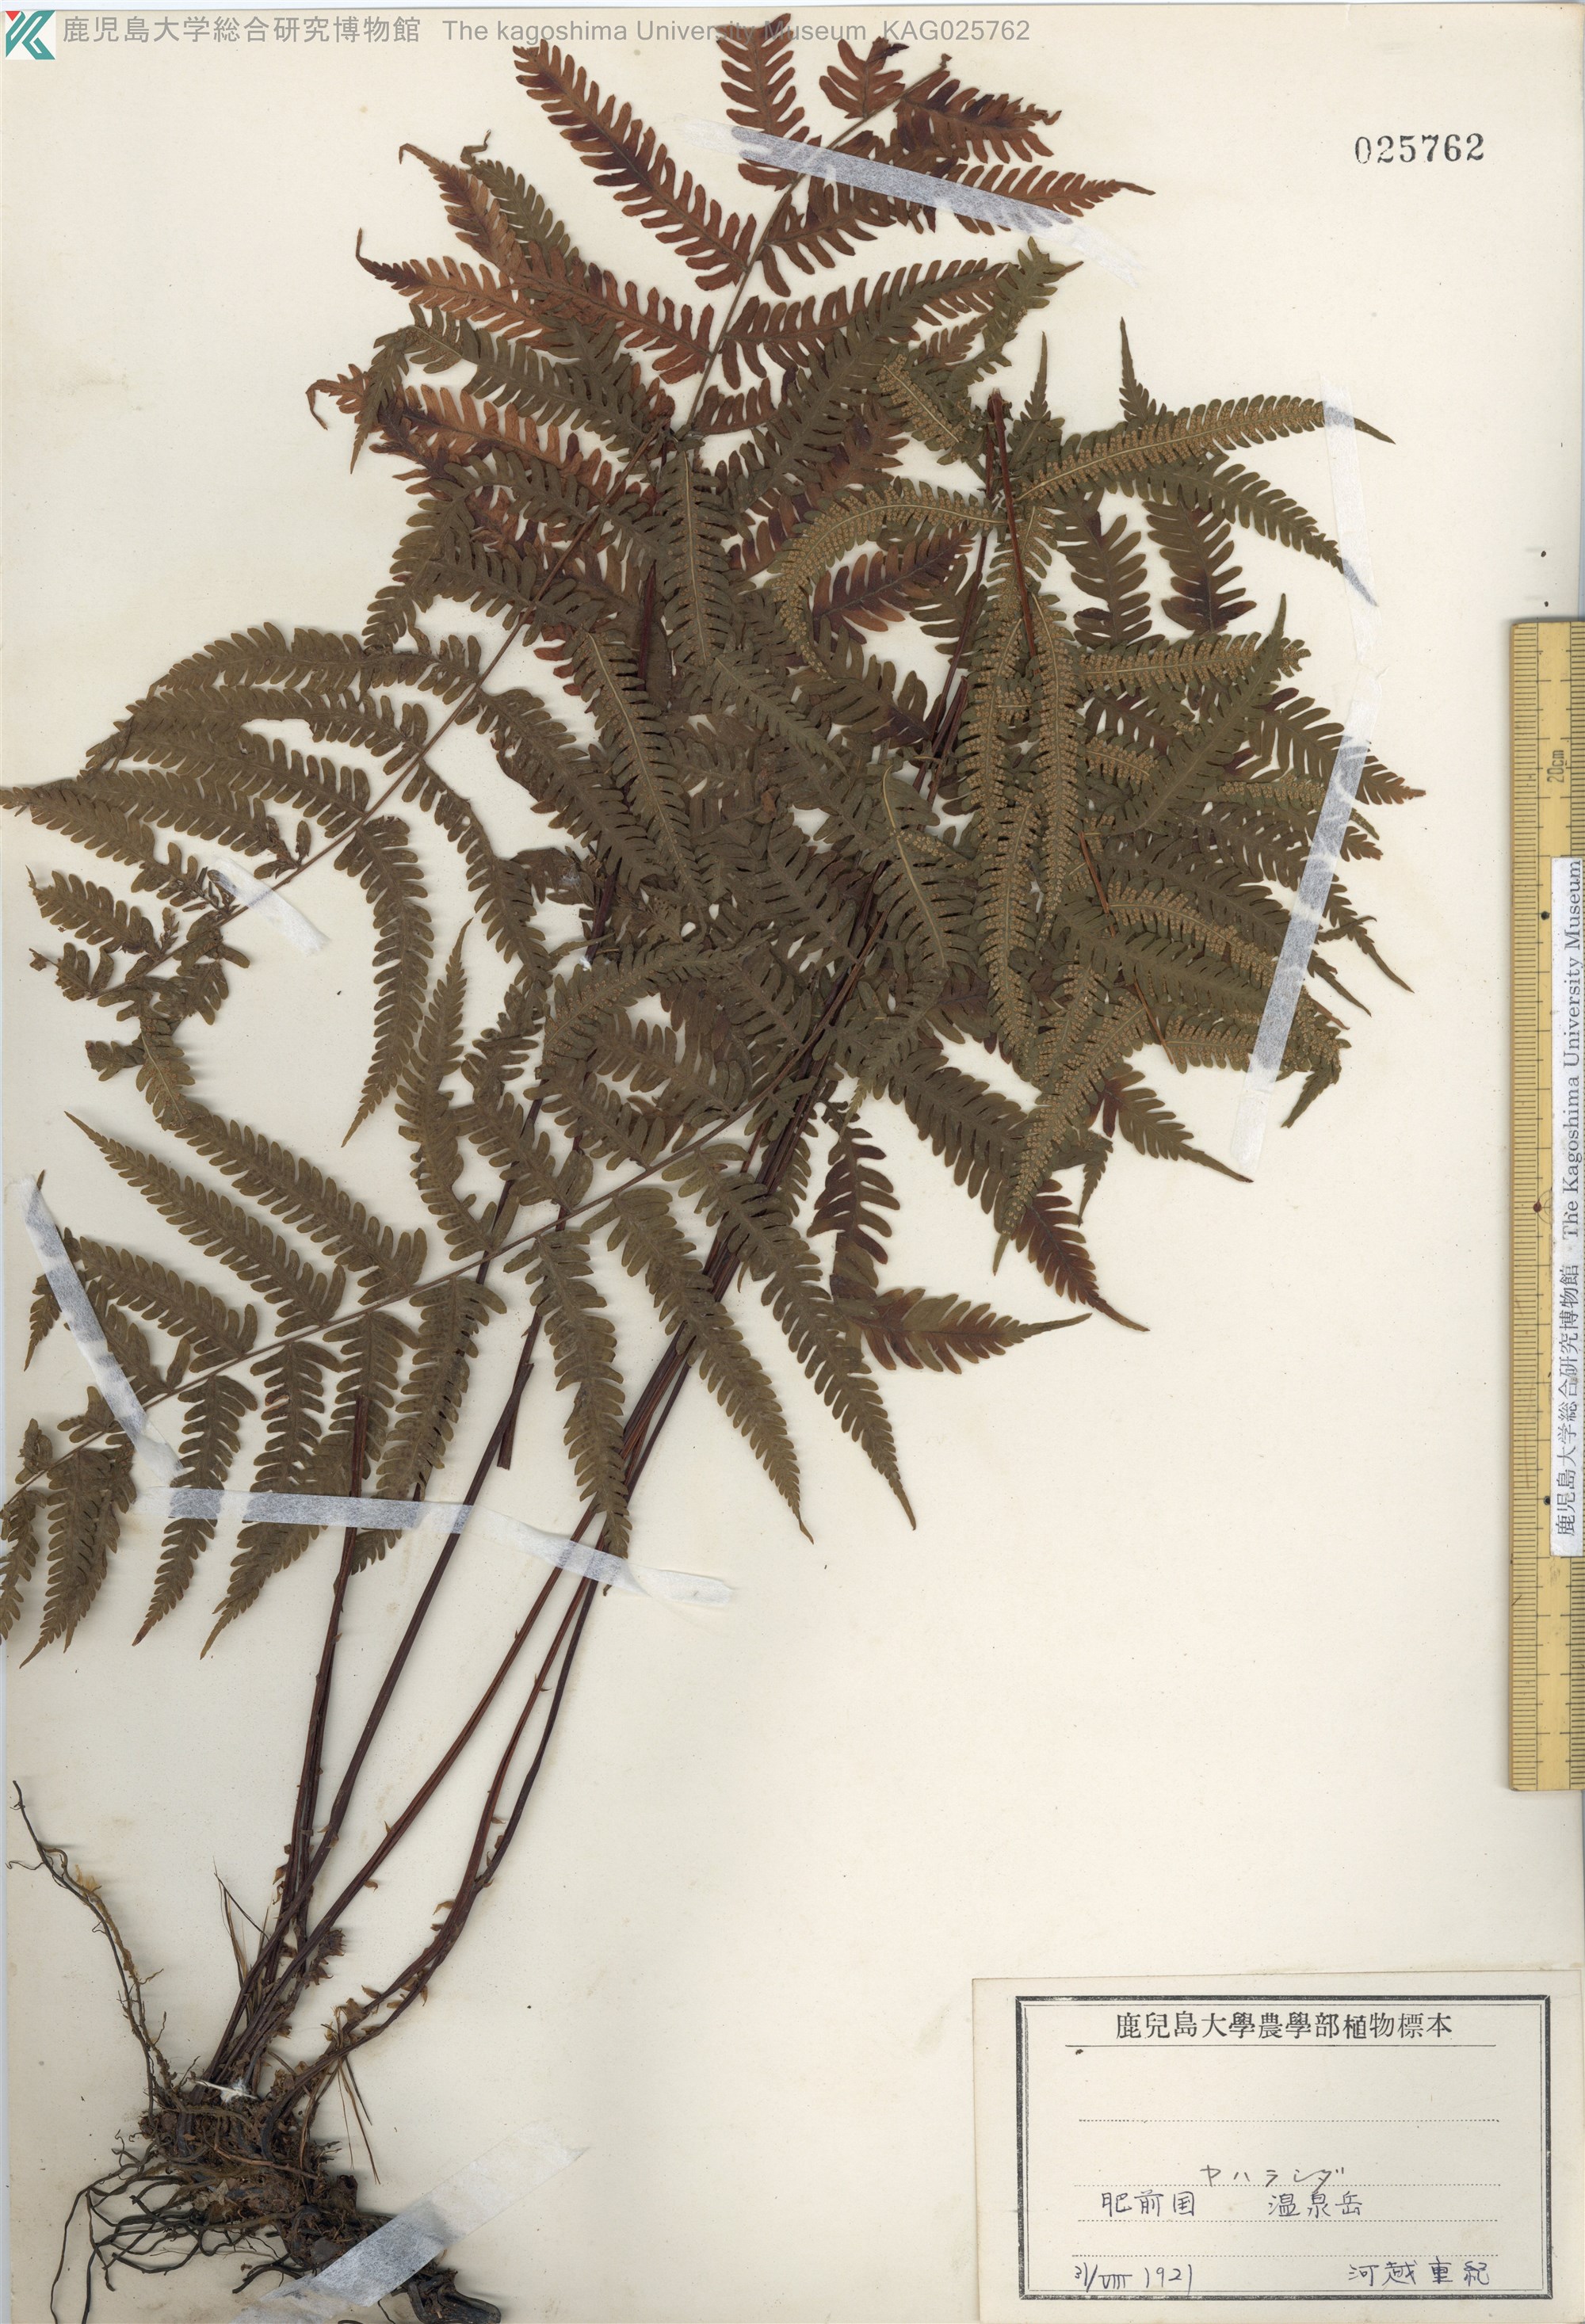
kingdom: Plantae
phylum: Tracheophyta
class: Polypodiopsida
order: Polypodiales
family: Thelypteridaceae
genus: Coryphopteris
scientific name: Coryphopteris japonica
